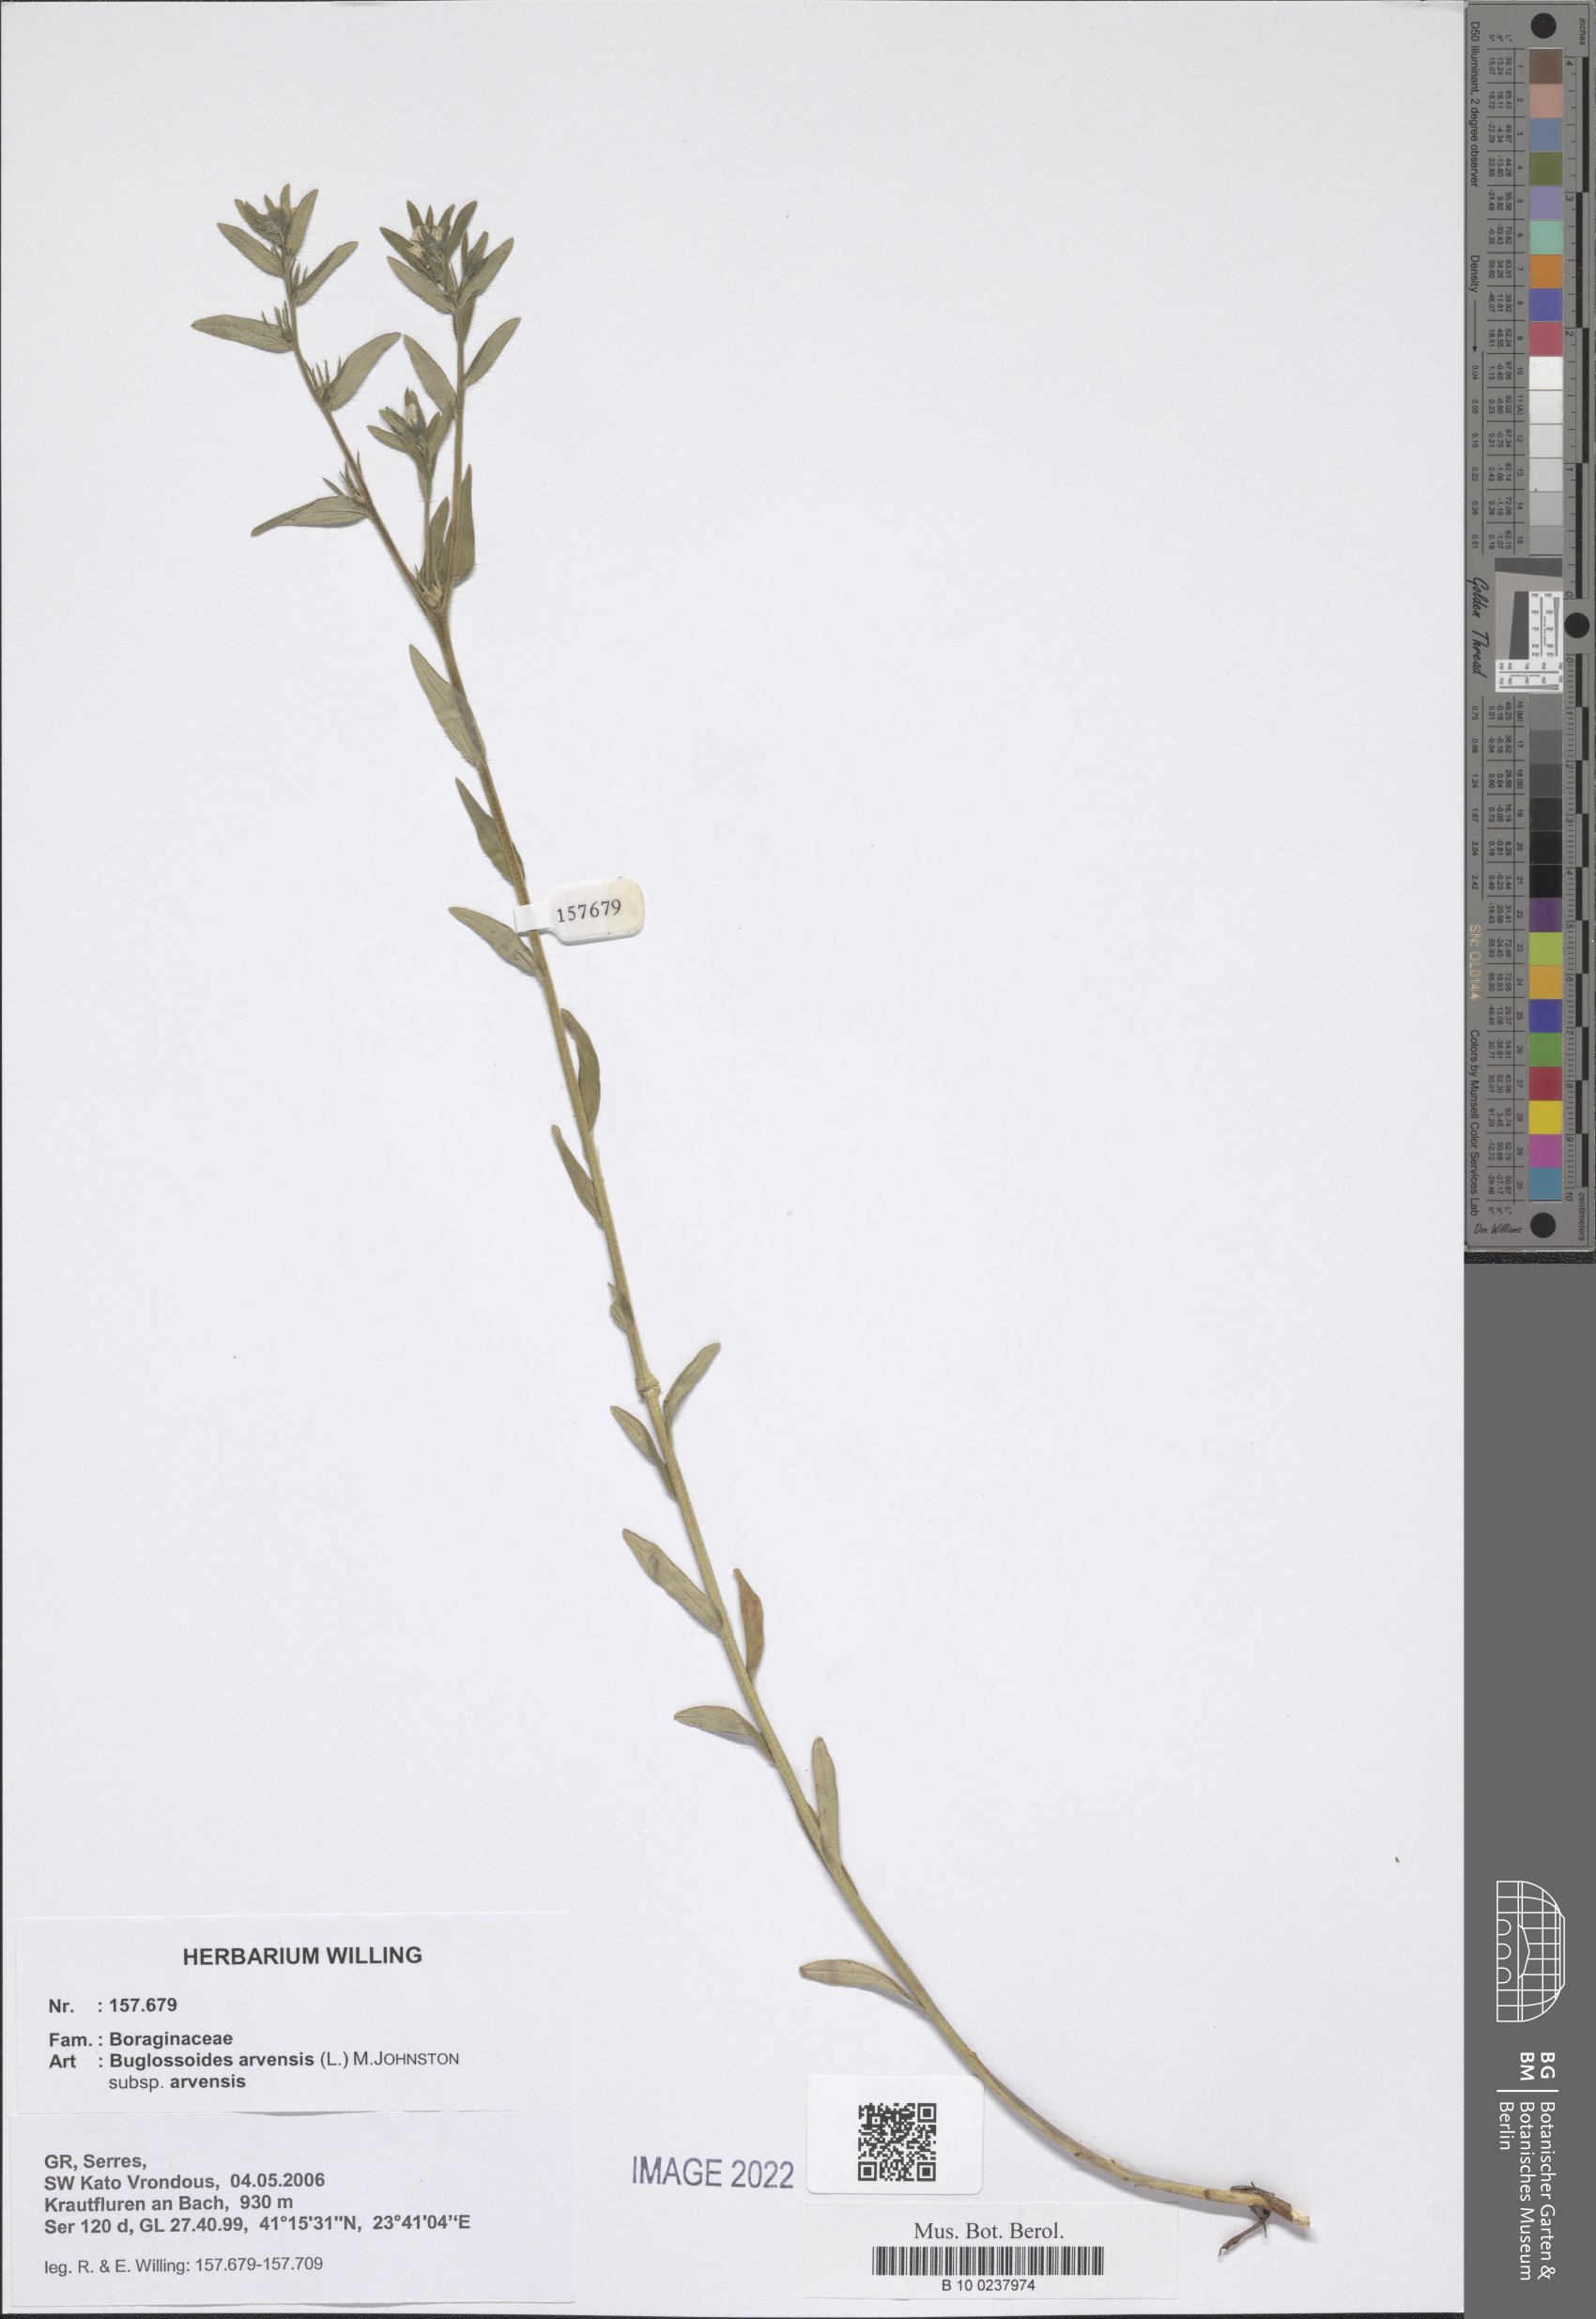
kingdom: Plantae
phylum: Tracheophyta
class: Magnoliopsida
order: Boraginales
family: Boraginaceae
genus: Buglossoides
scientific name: Buglossoides arvensis
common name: Corn gromwell
